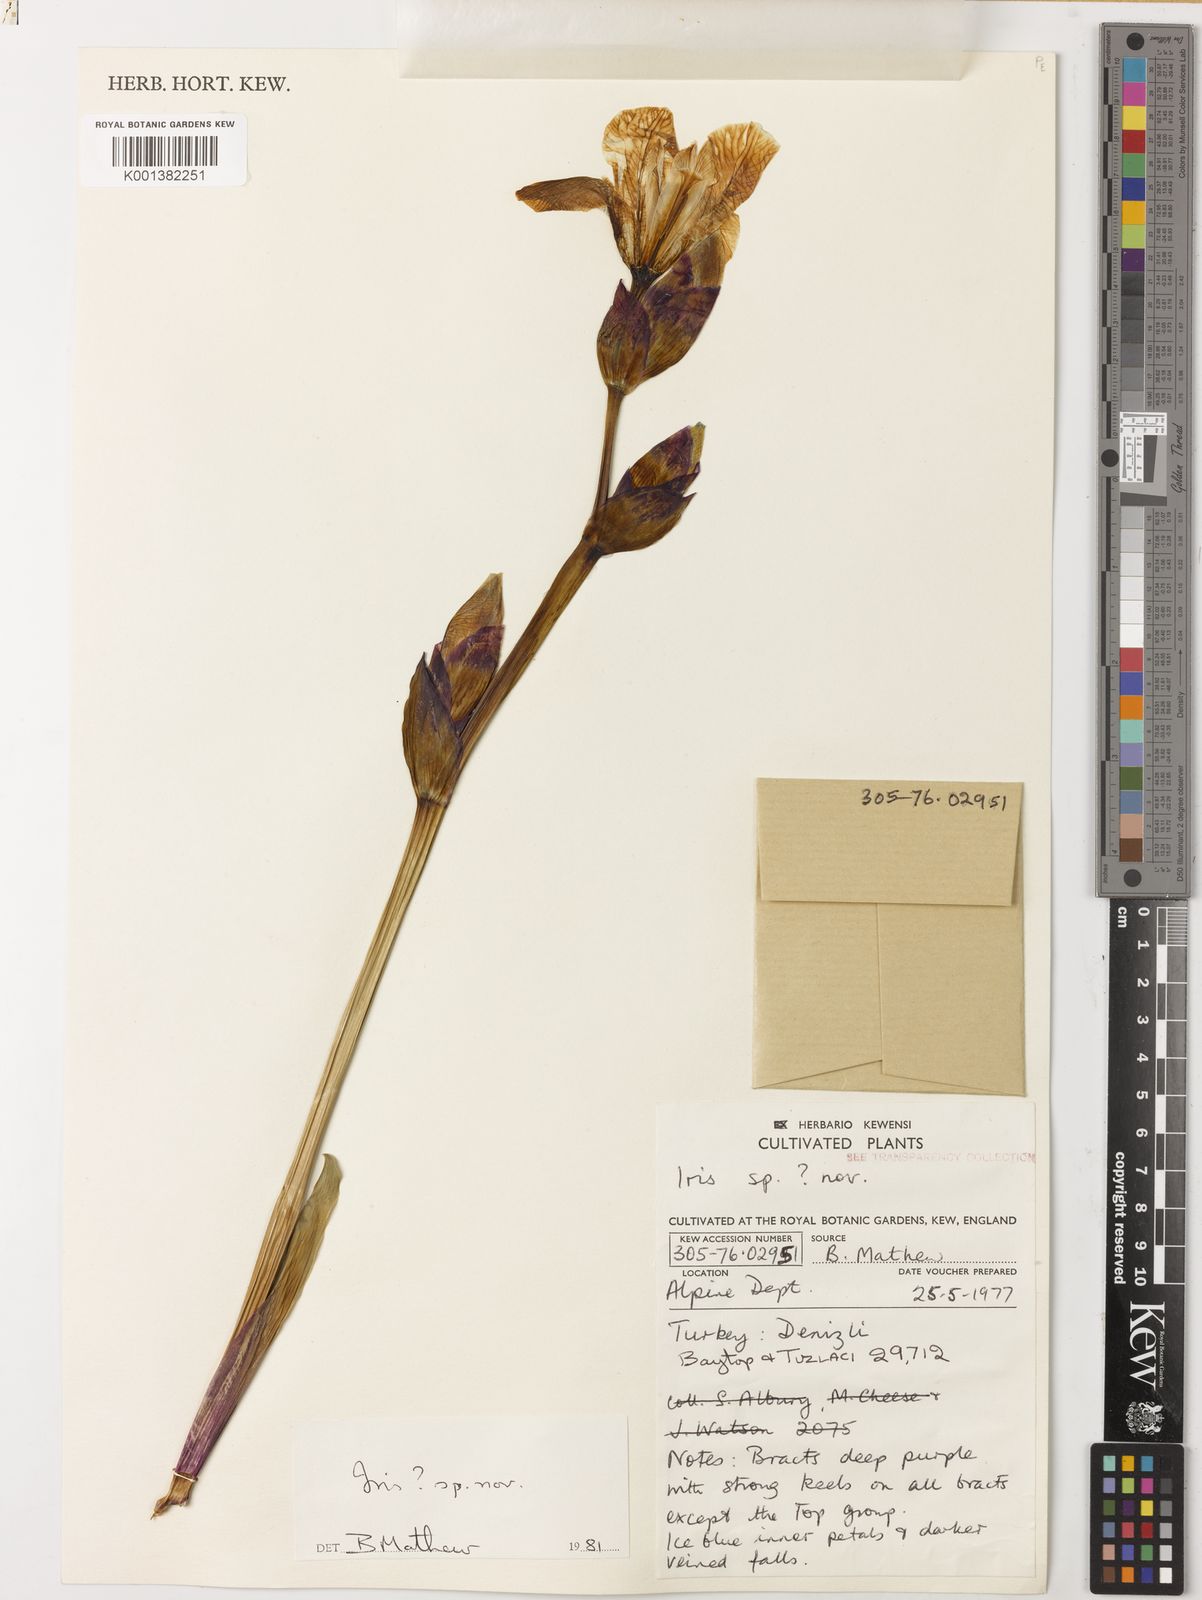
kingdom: Plantae
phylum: Tracheophyta
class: Liliopsida
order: Asparagales
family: Iridaceae
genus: Iris
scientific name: Iris purpureobractea
